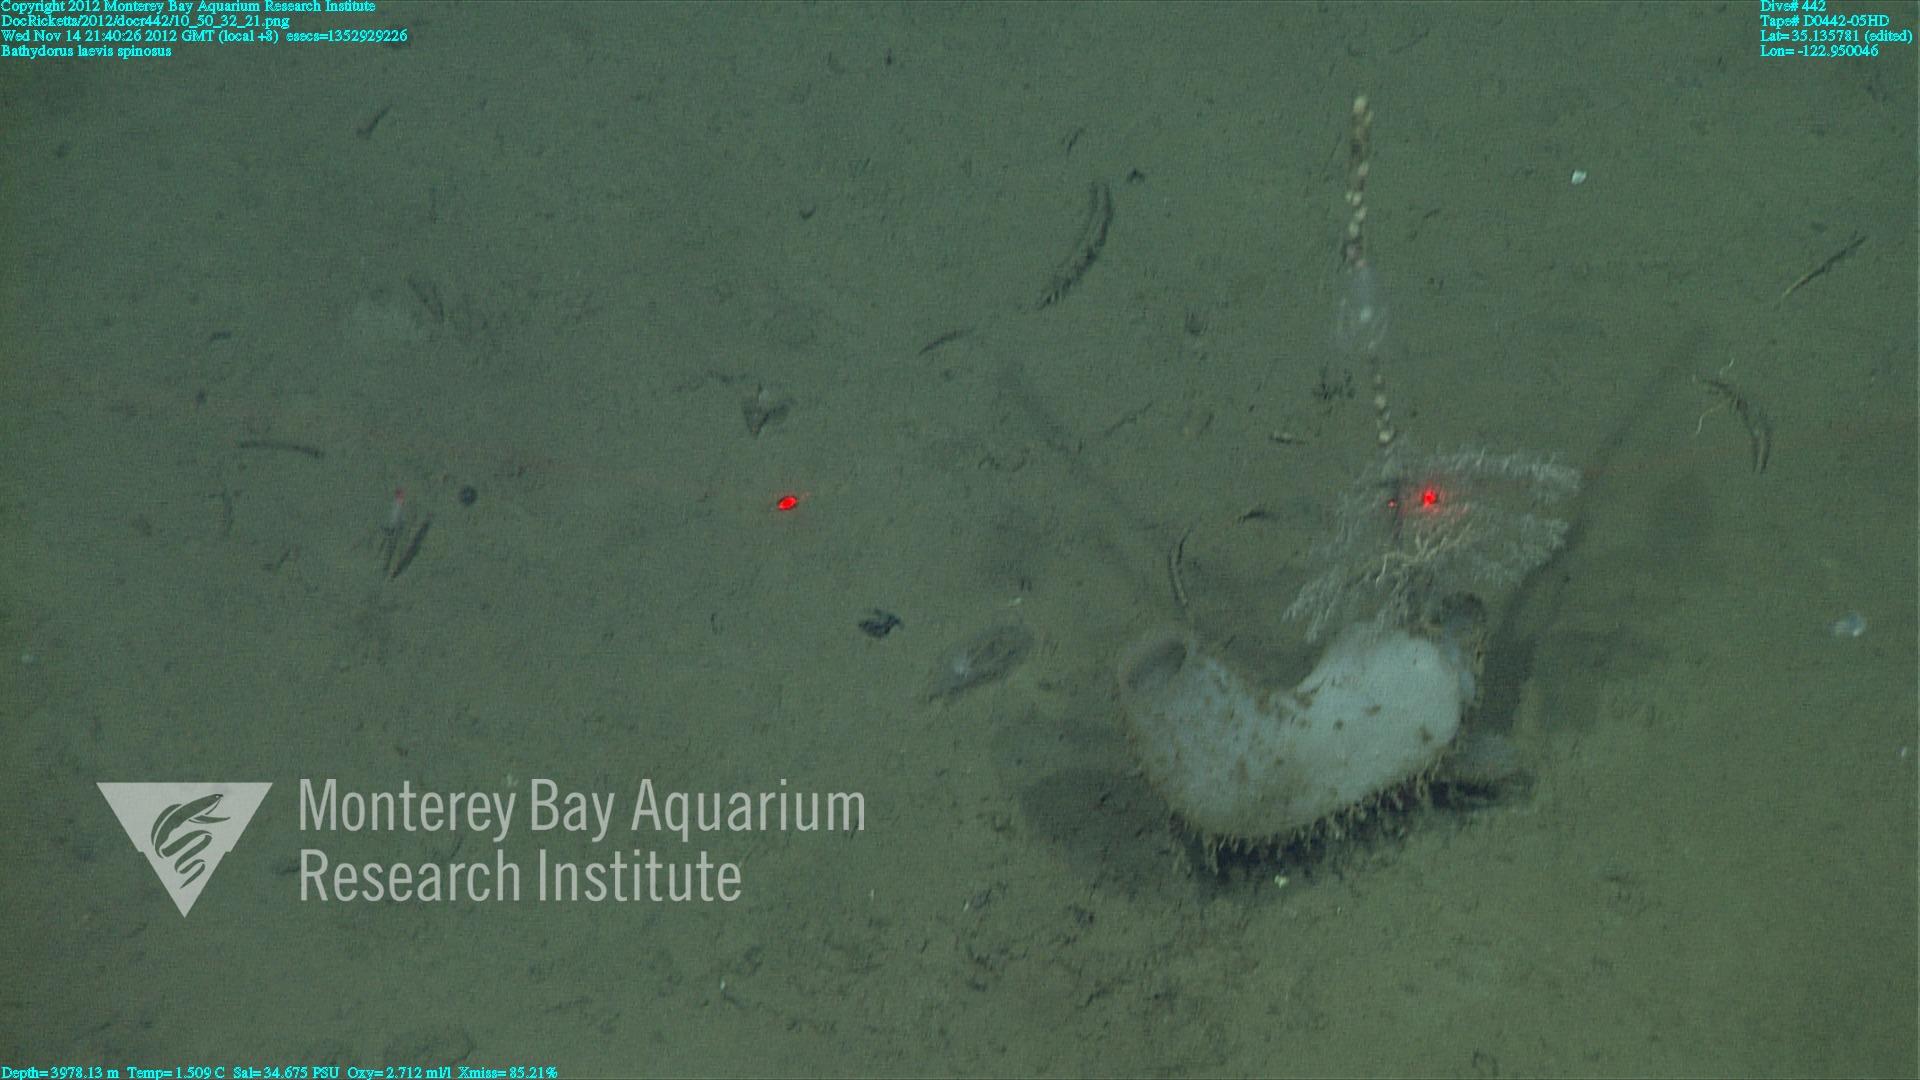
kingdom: Animalia
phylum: Porifera
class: Hexactinellida
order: Lyssacinosida
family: Rossellidae
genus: Bathydorus
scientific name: Bathydorus spinosus
